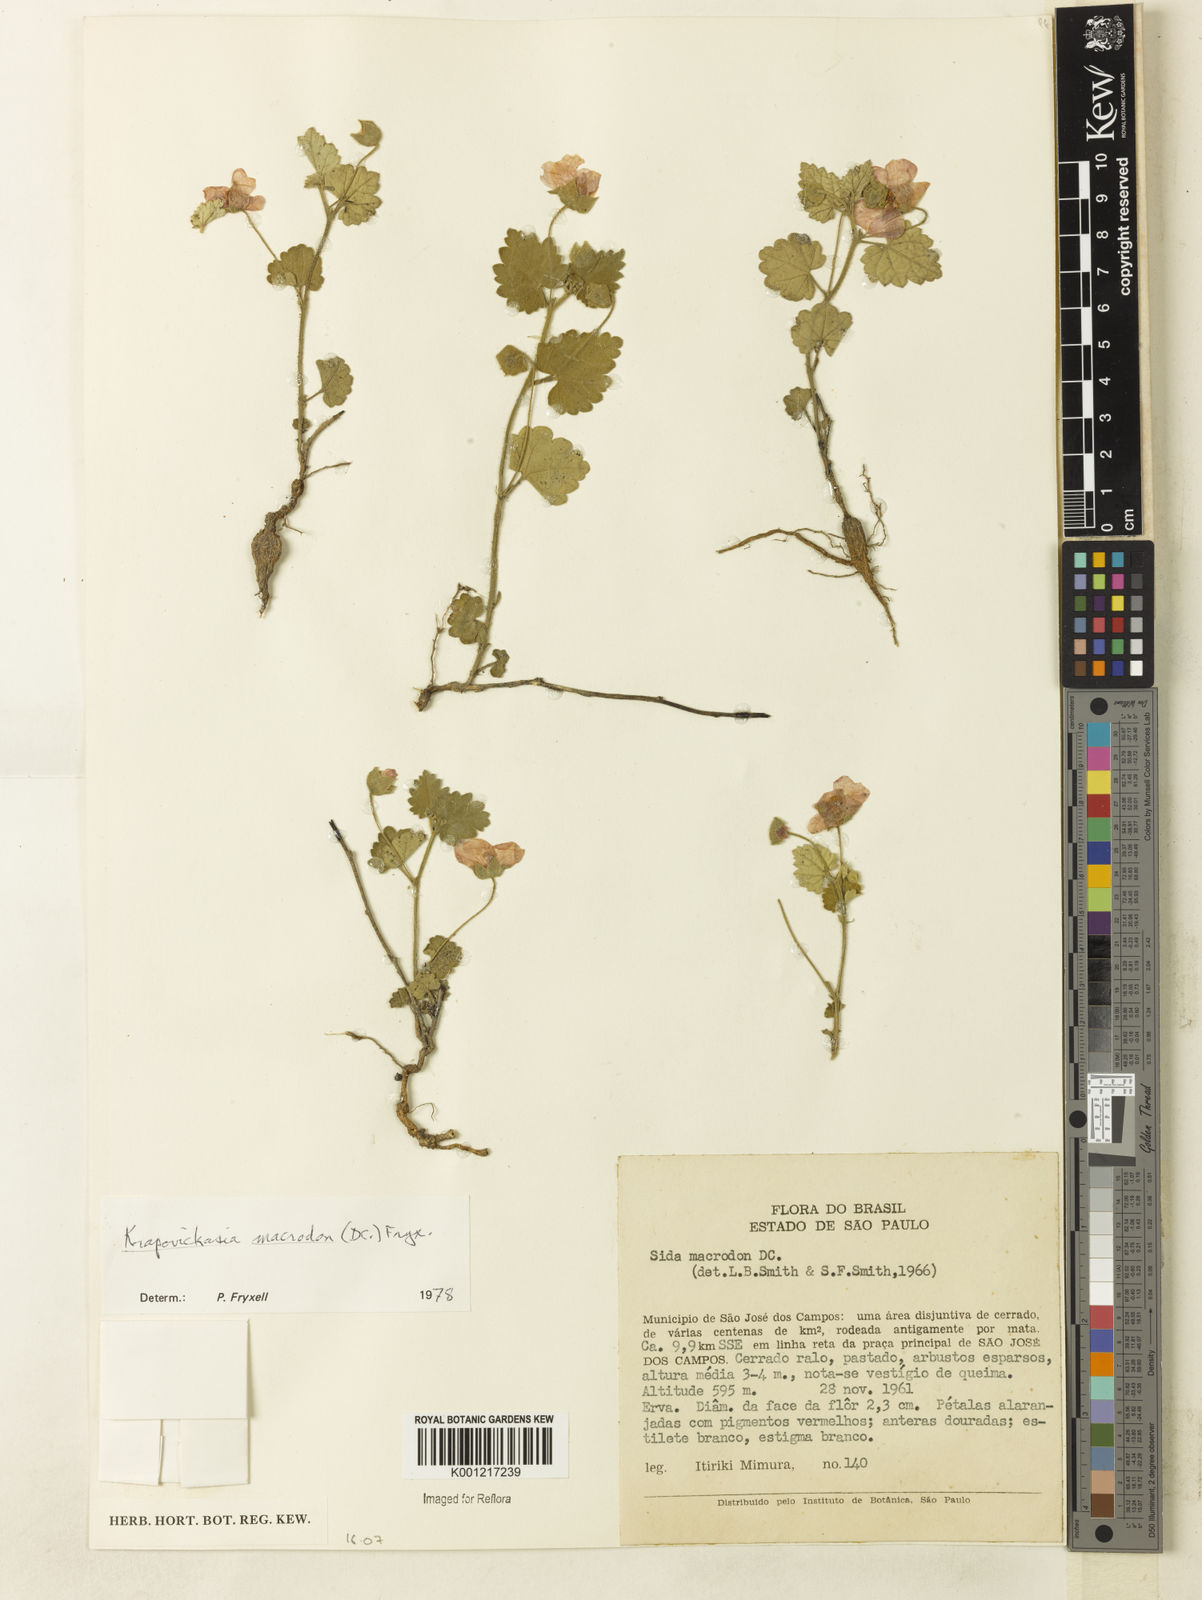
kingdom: Plantae
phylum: Tracheophyta
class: Magnoliopsida
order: Malvales
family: Malvaceae
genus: Krapovickasia
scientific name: Krapovickasia macrodon
